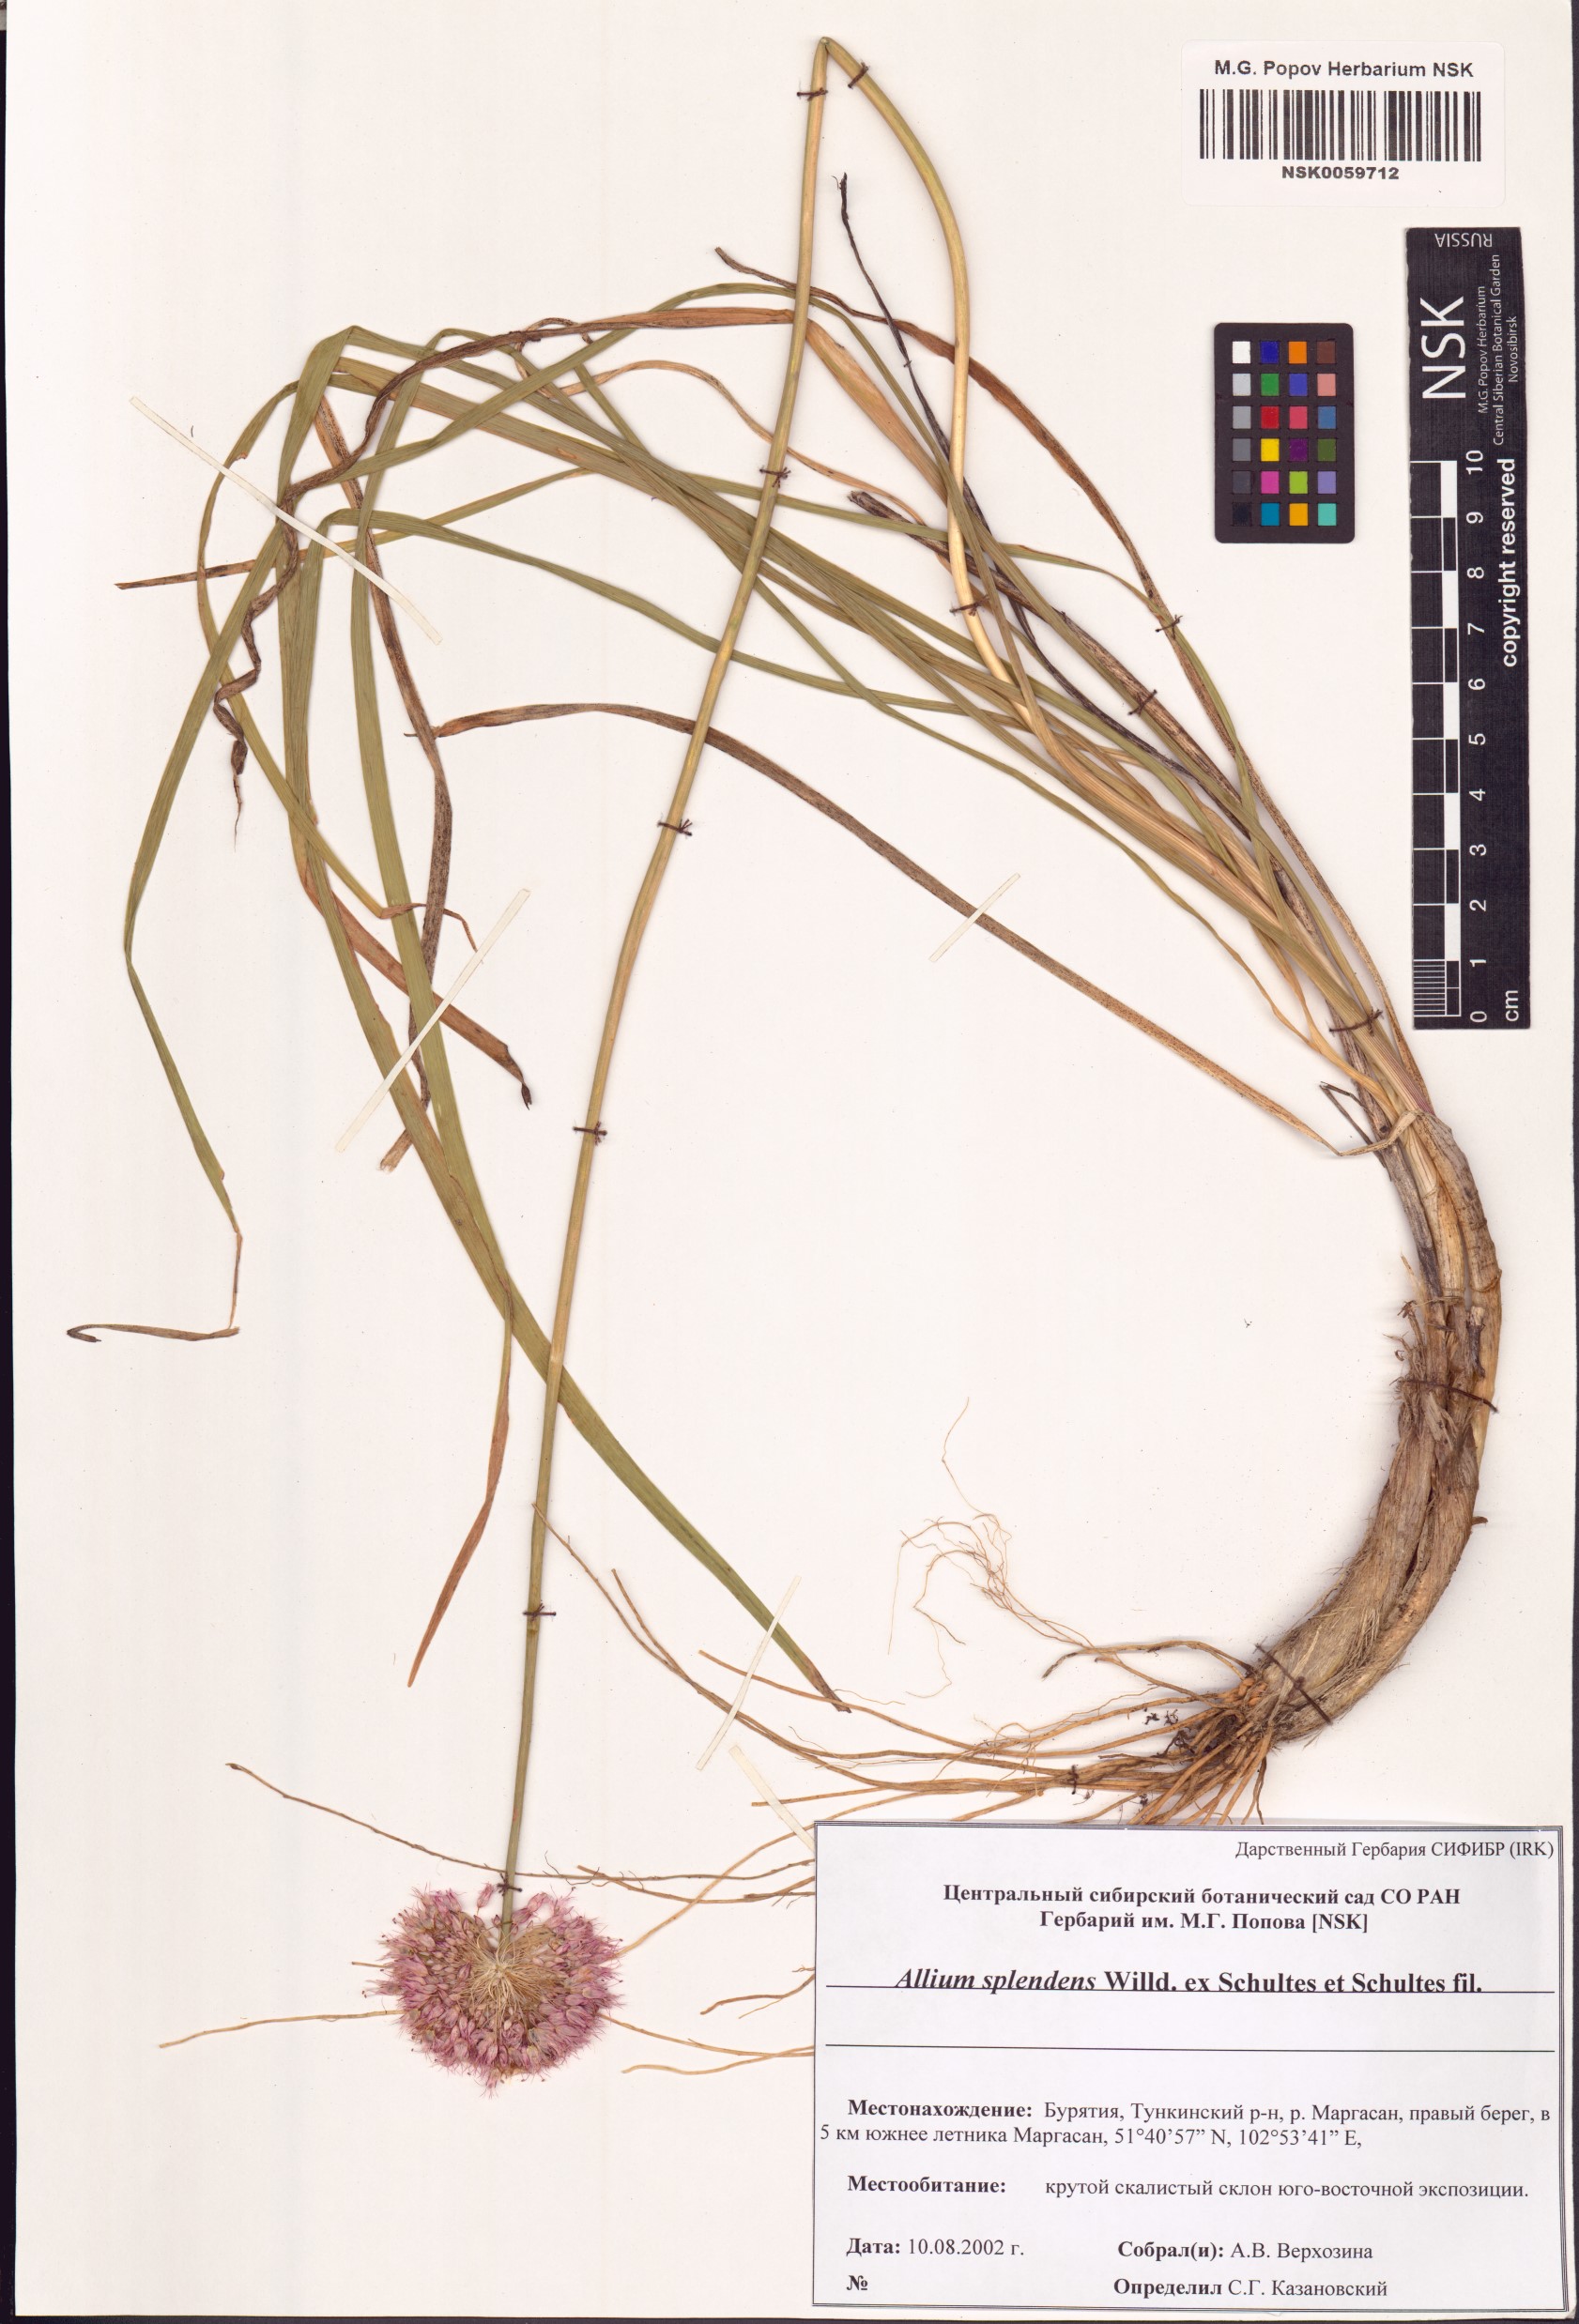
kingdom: Plantae
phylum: Tracheophyta
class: Liliopsida
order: Asparagales
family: Amaryllidaceae
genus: Allium
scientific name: Allium splendens
